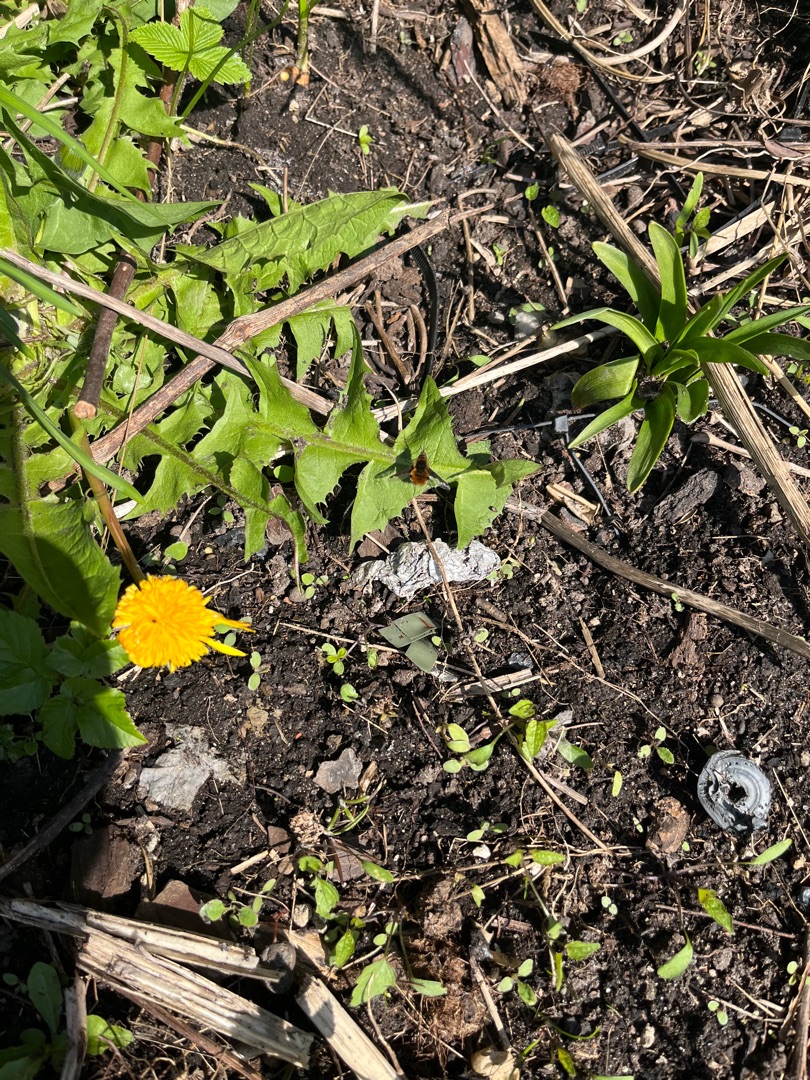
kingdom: Animalia
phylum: Arthropoda
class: Insecta
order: Diptera
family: Bombyliidae
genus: Bombylius
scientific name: Bombylius major
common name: Stor humleflue
